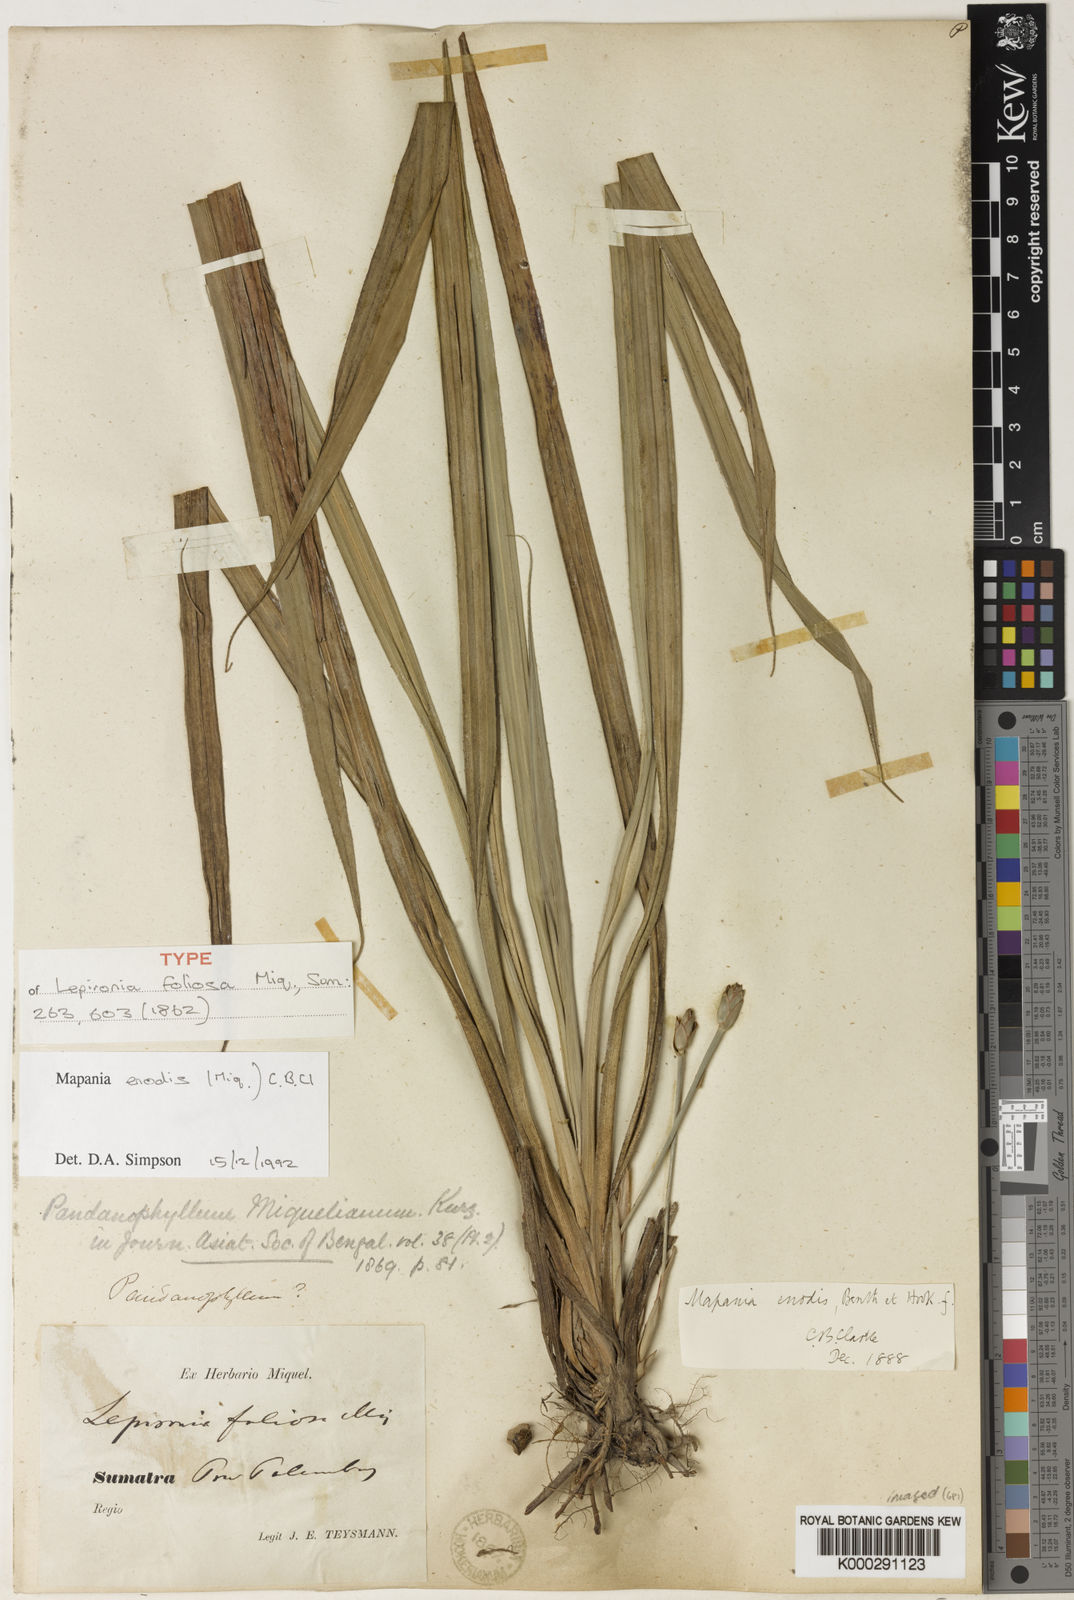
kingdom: Plantae
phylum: Tracheophyta
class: Liliopsida
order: Poales
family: Cyperaceae
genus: Mapania
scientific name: Mapania
